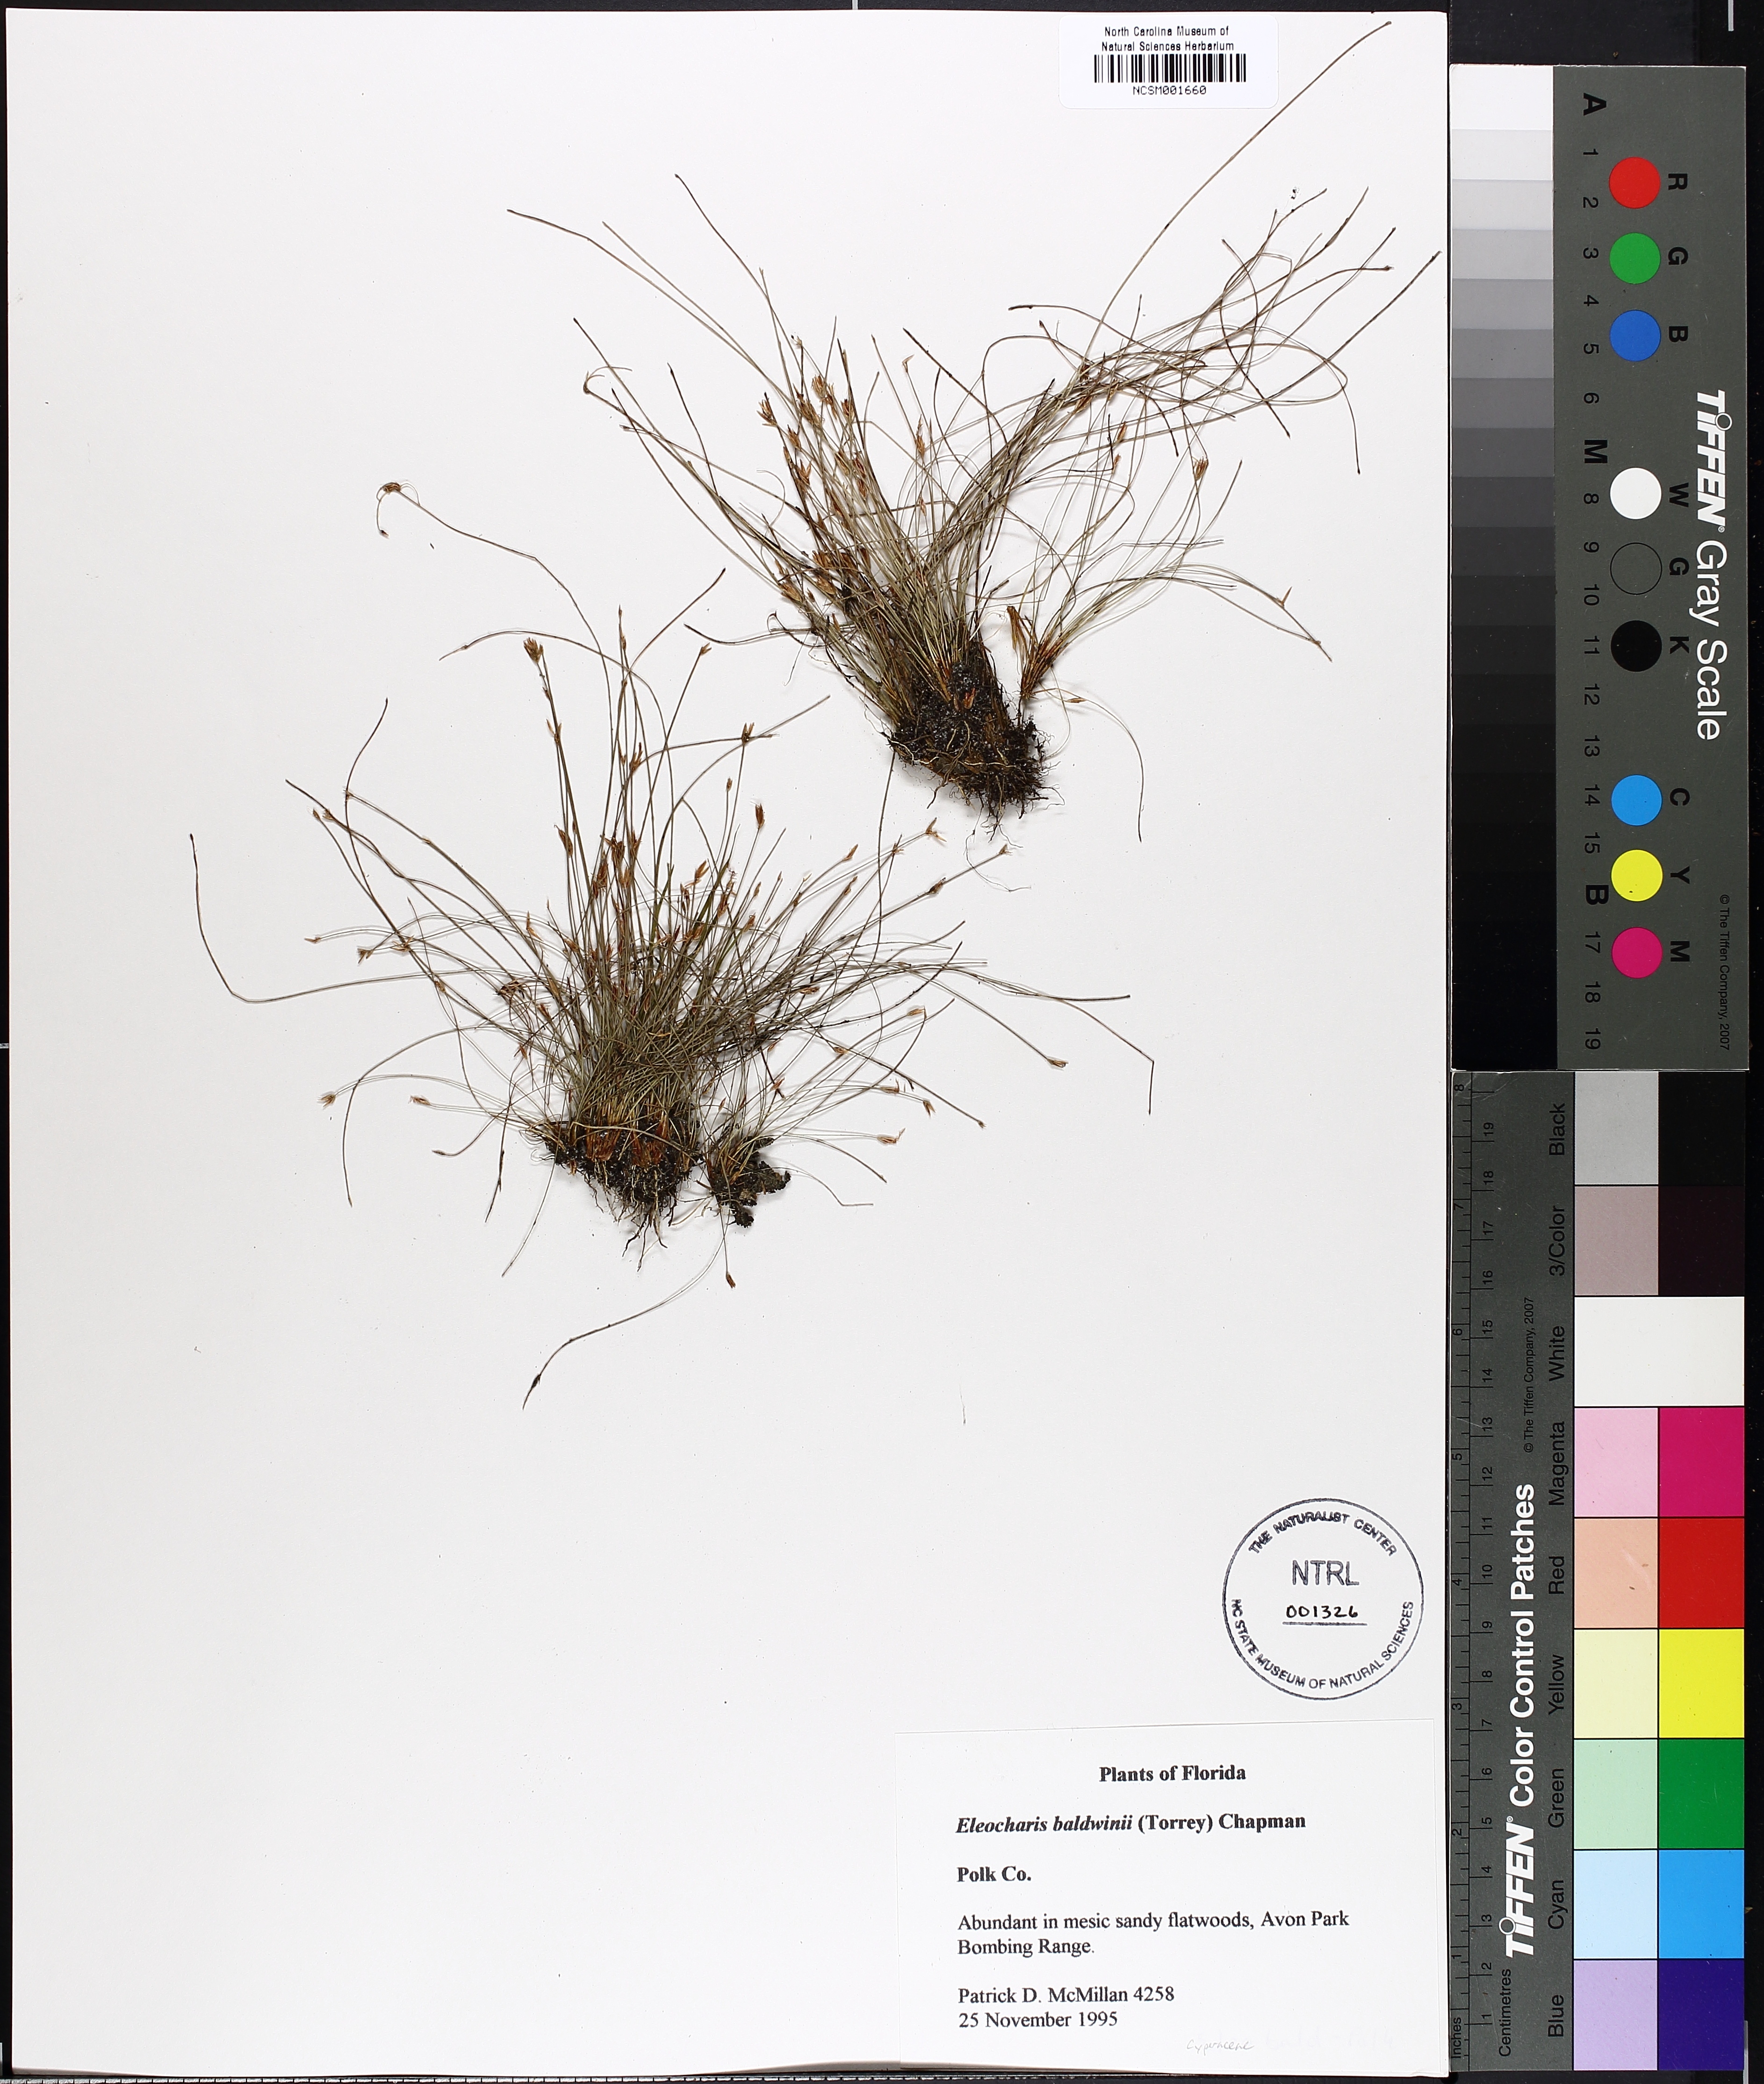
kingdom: Plantae
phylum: Tracheophyta
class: Liliopsida
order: Poales
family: Cyperaceae
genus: Eleocharis
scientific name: Eleocharis baldwinii
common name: Baldwin's spike-rush
